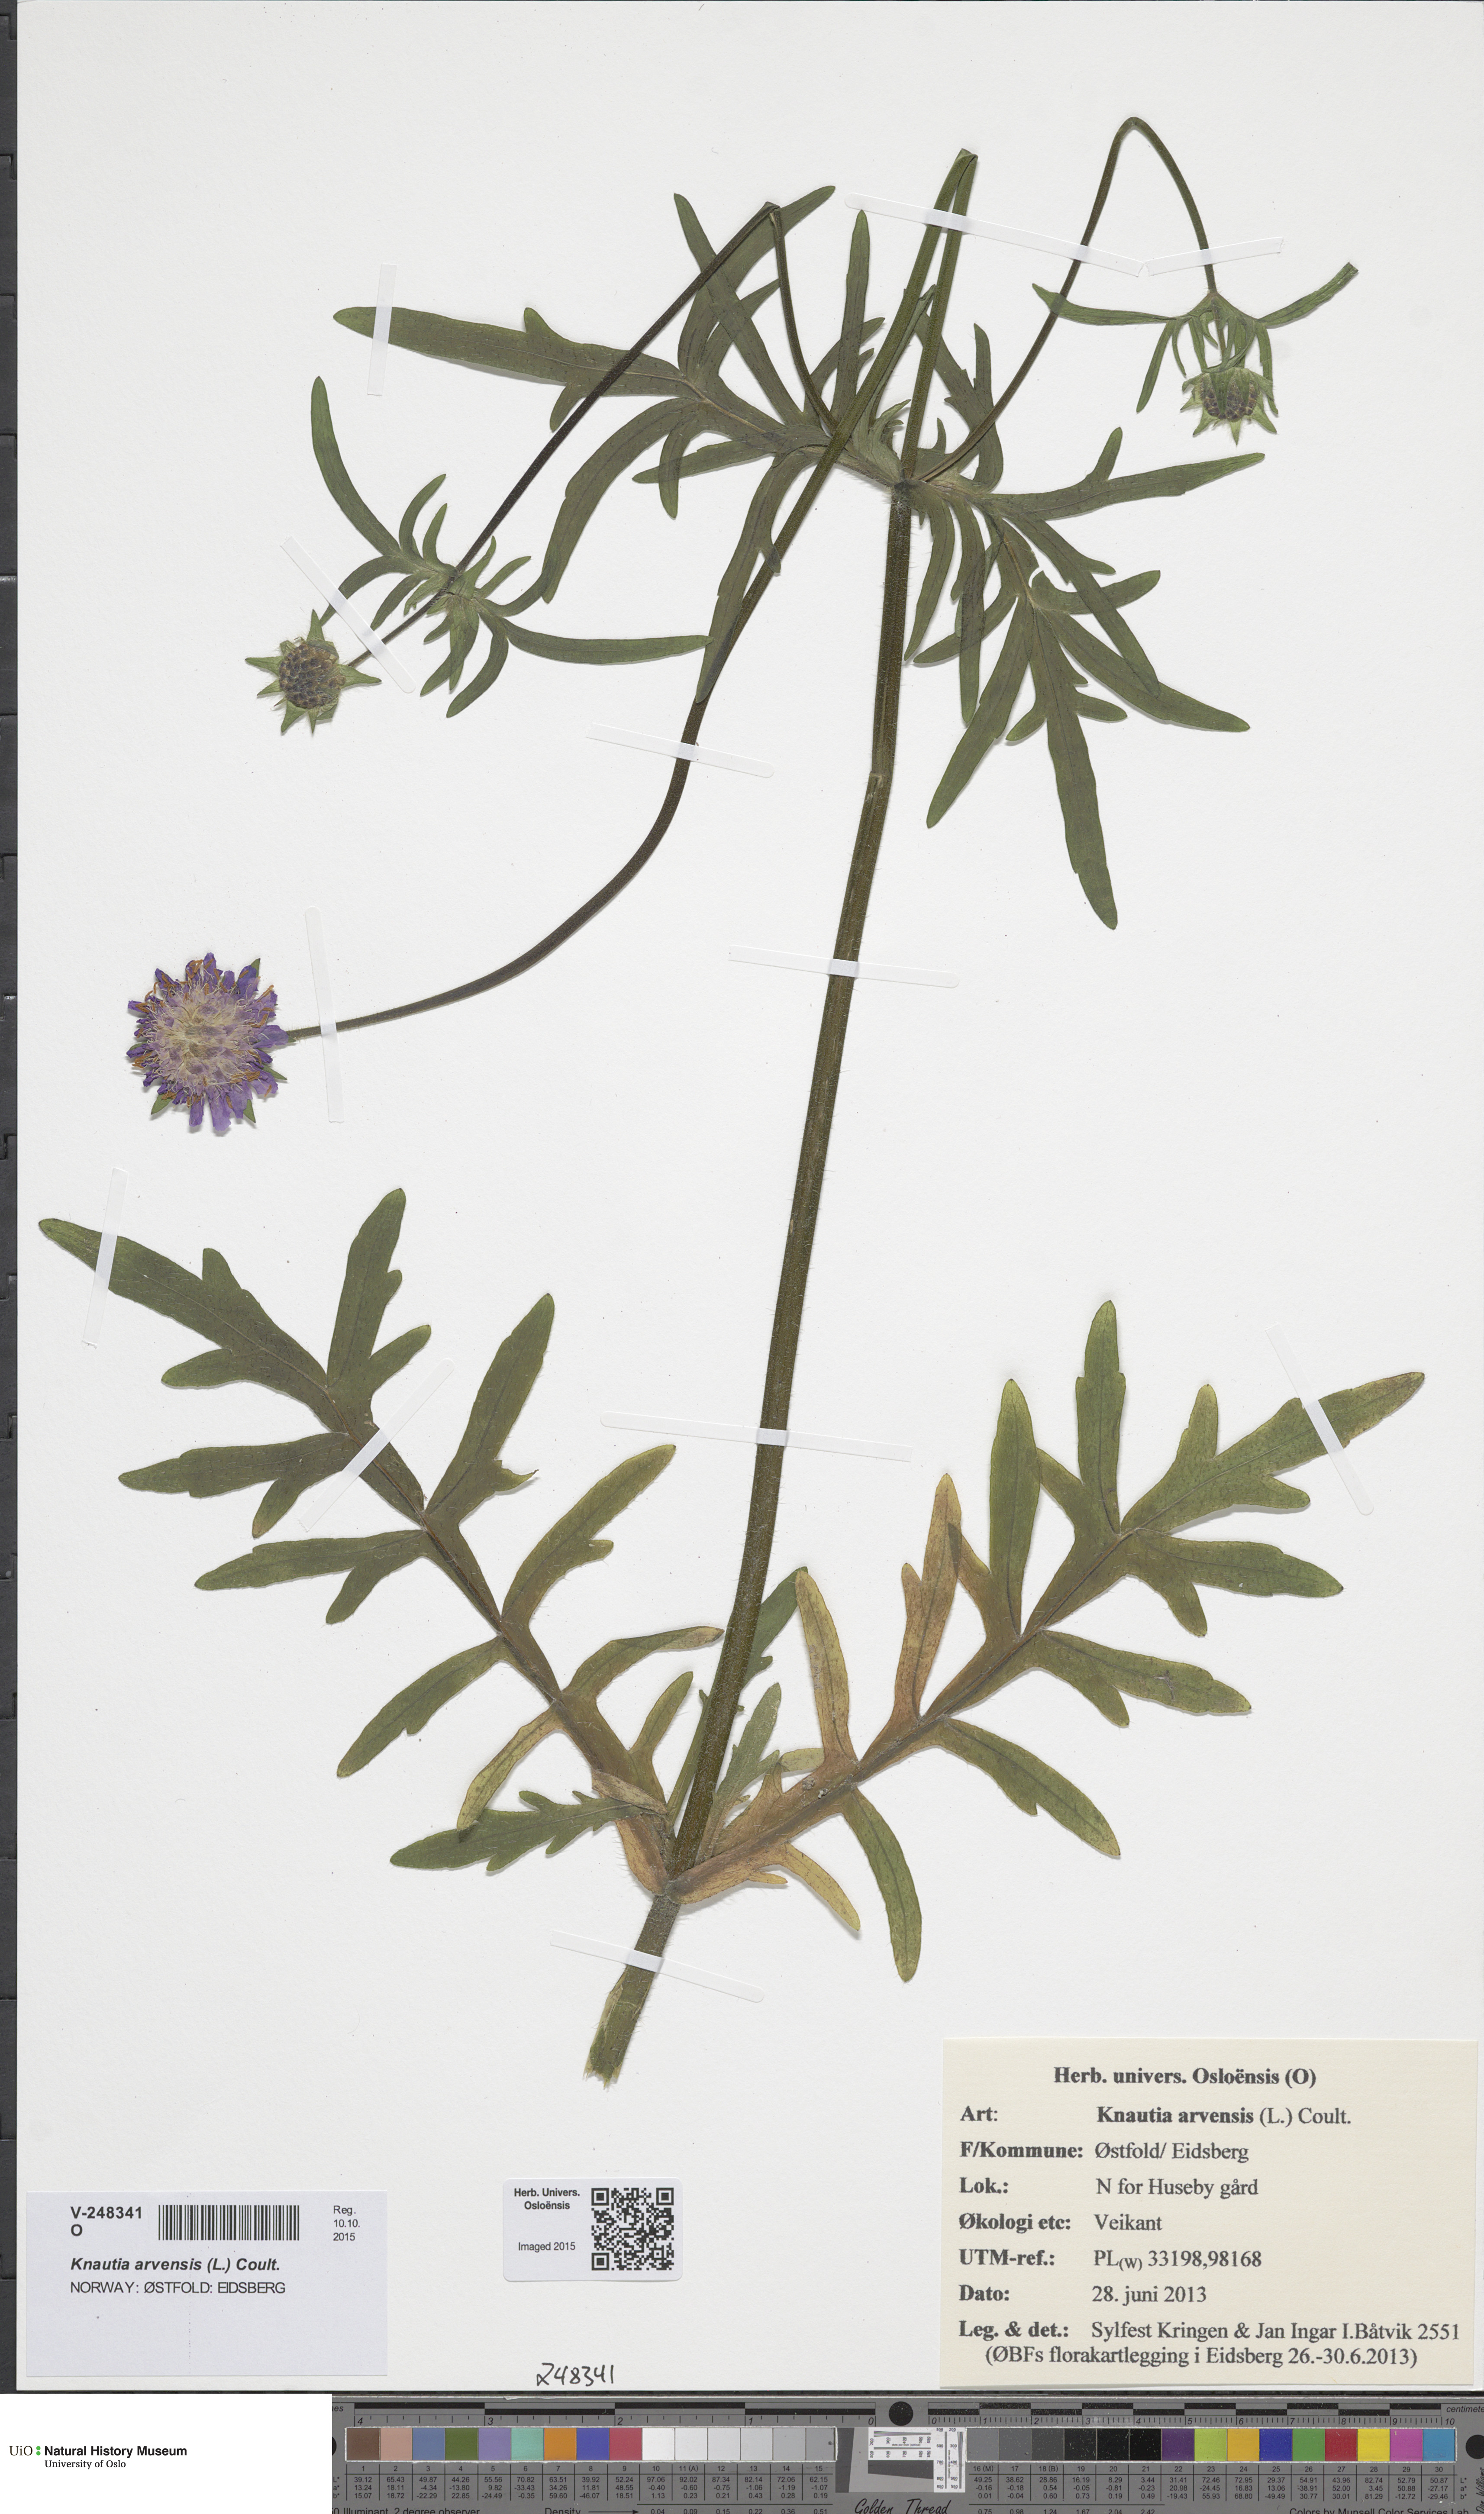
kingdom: Plantae
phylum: Tracheophyta
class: Magnoliopsida
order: Dipsacales
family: Caprifoliaceae
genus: Knautia
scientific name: Knautia arvensis
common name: Field scabiosa
